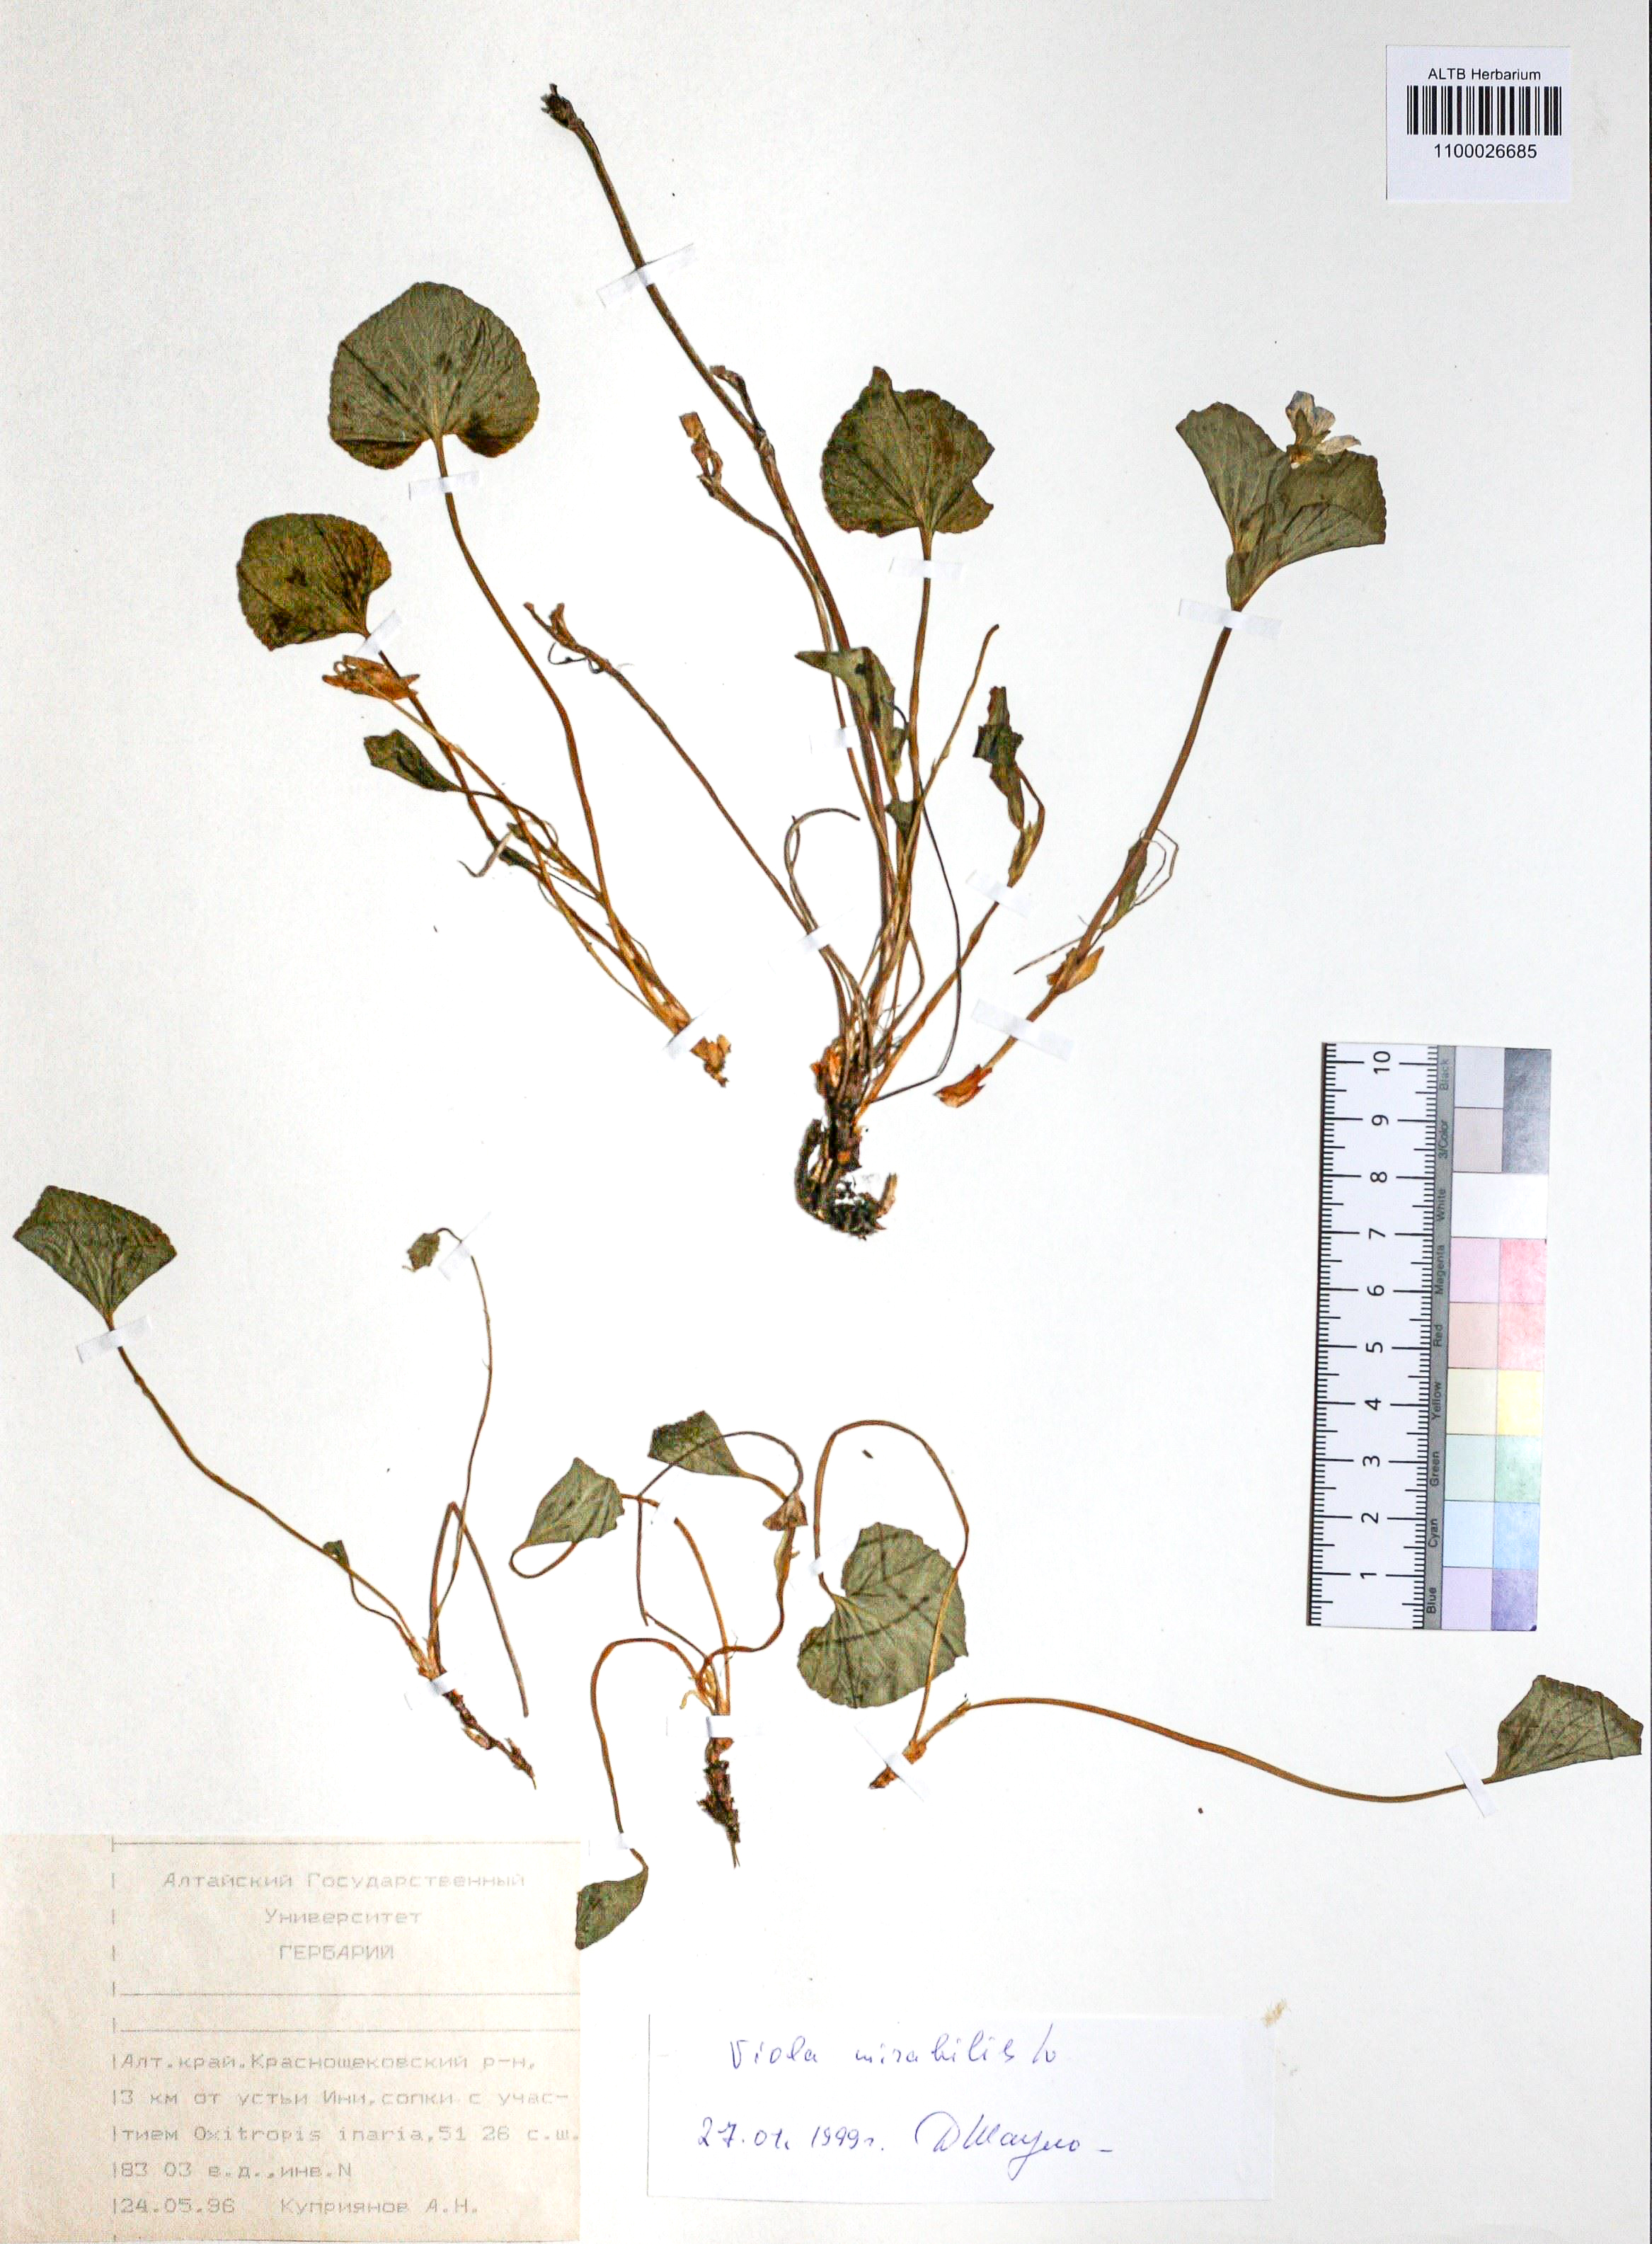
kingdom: Plantae
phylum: Tracheophyta
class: Magnoliopsida
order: Malpighiales
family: Violaceae
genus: Viola
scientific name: Viola mirabilis
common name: Wonder violet
